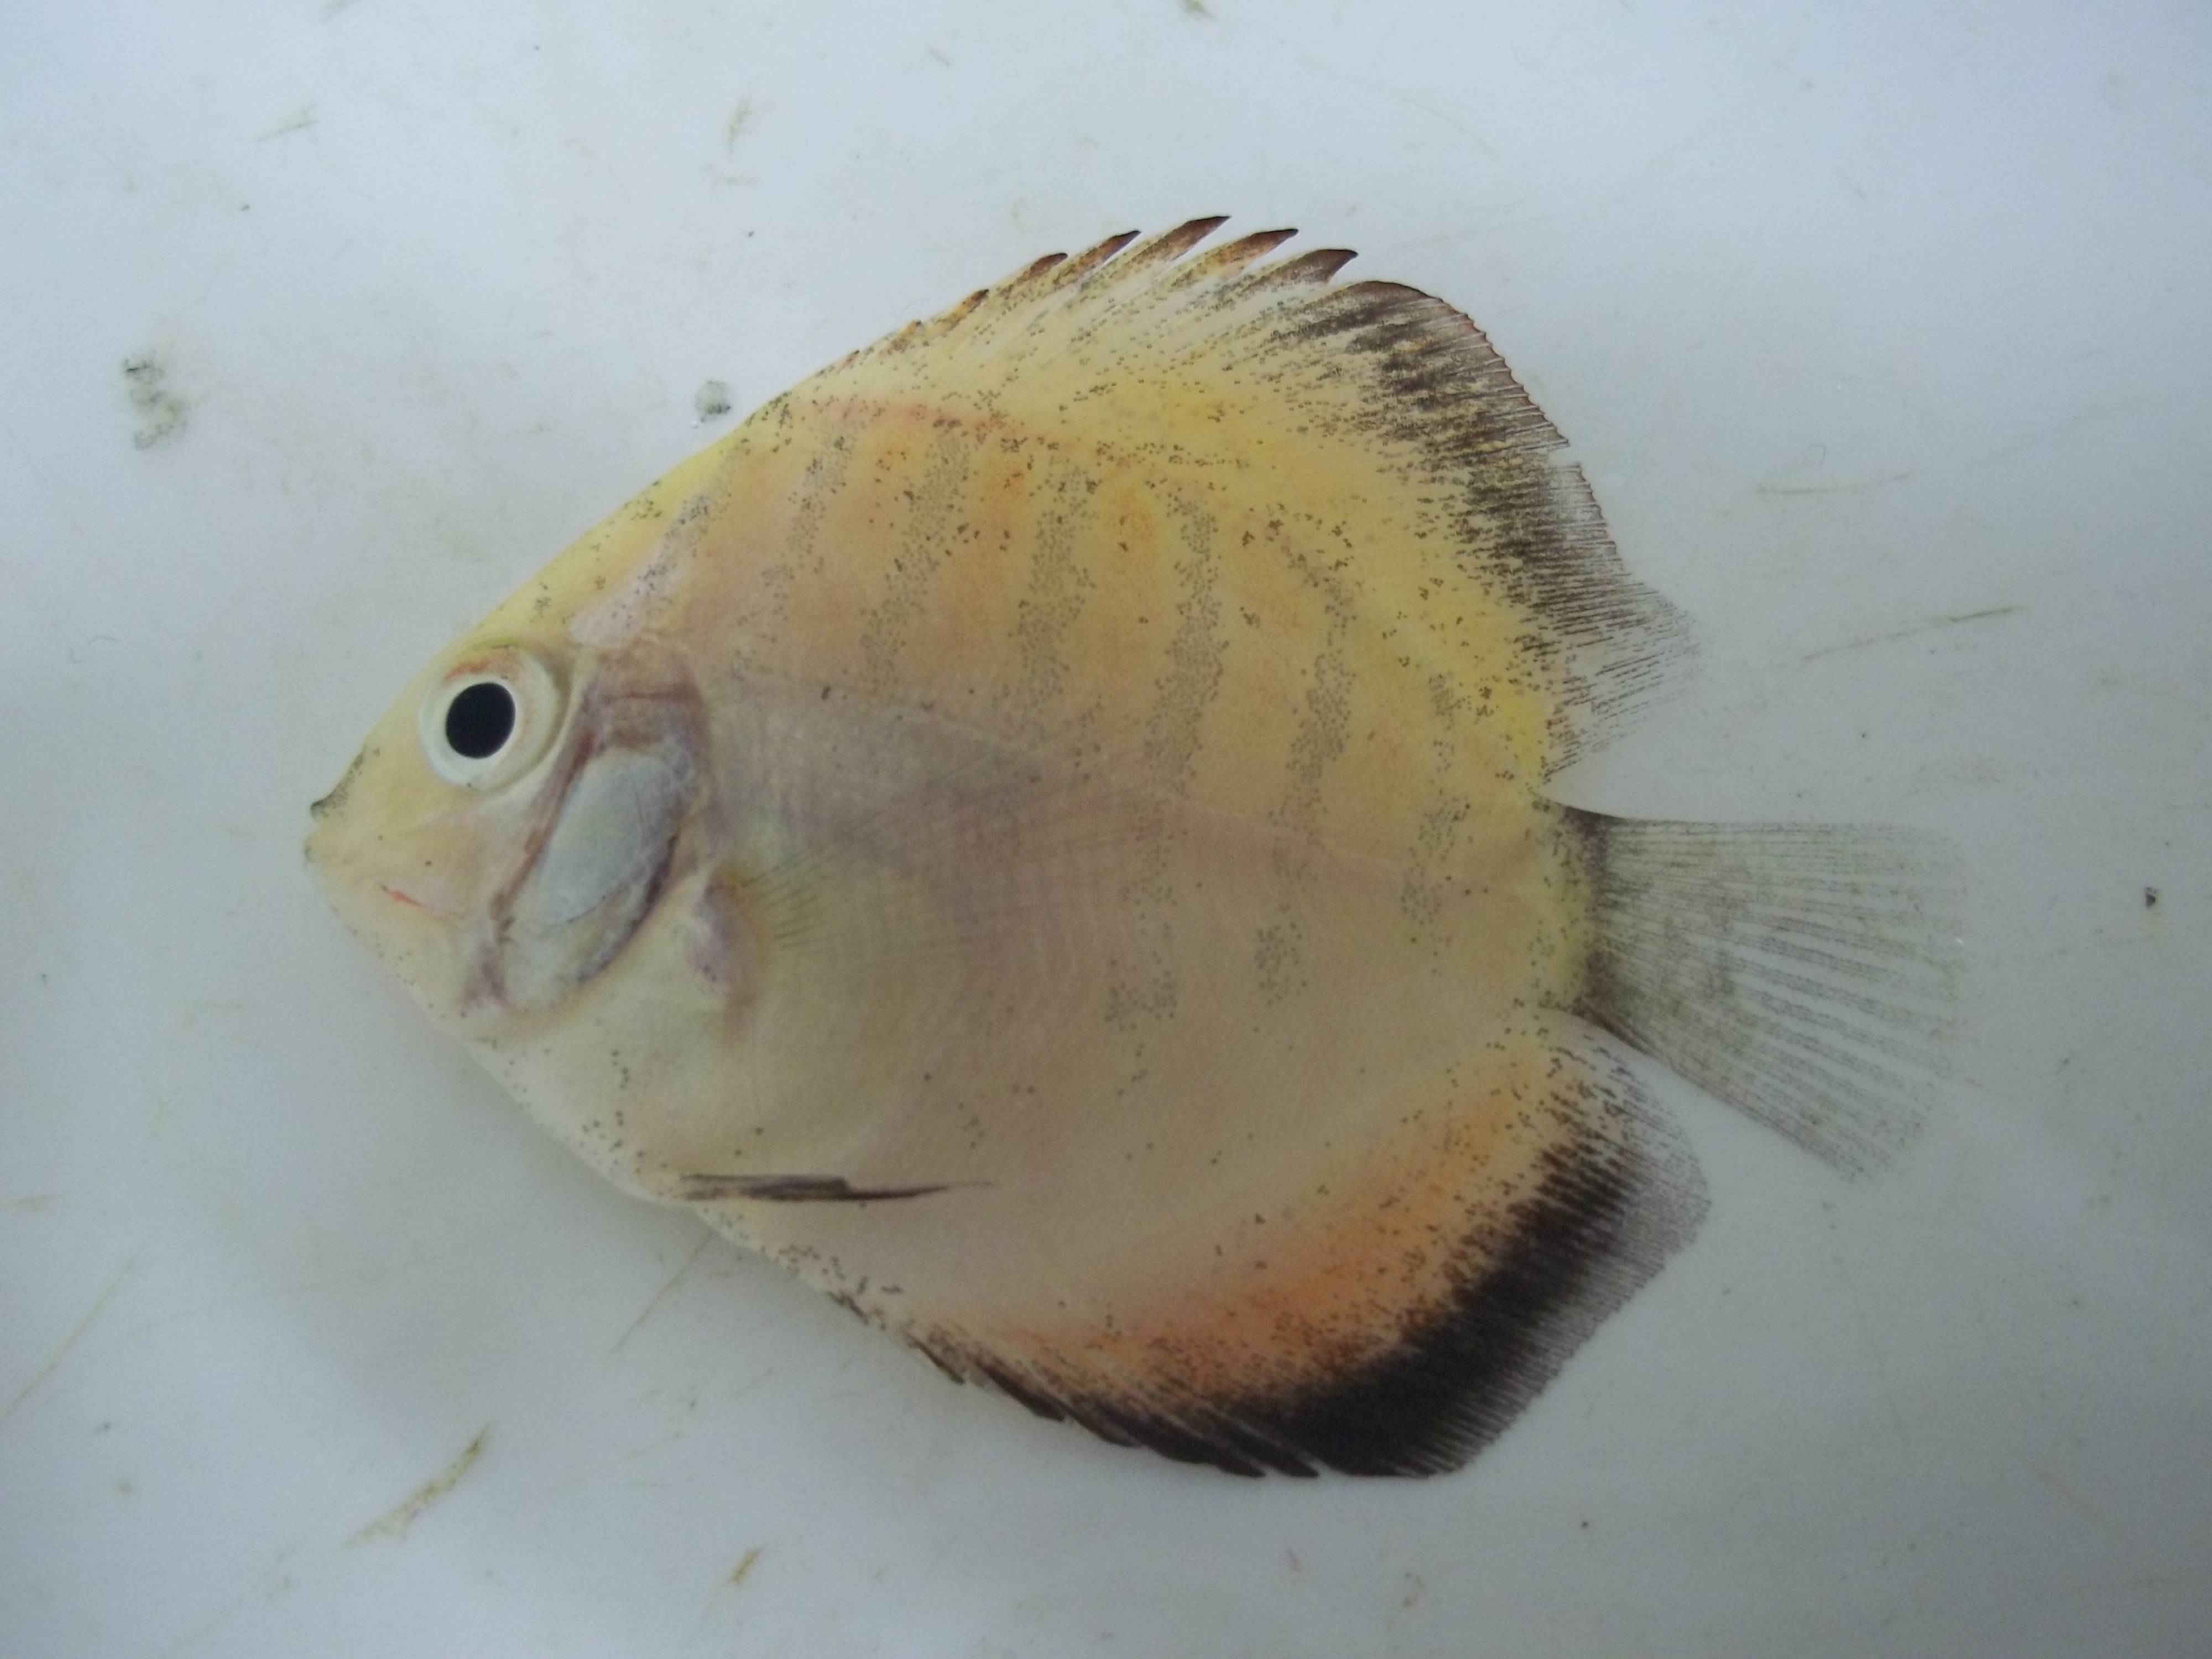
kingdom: Animalia
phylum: Chordata
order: Perciformes
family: Cichlidae
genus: Symphysodon
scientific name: Symphysodon
